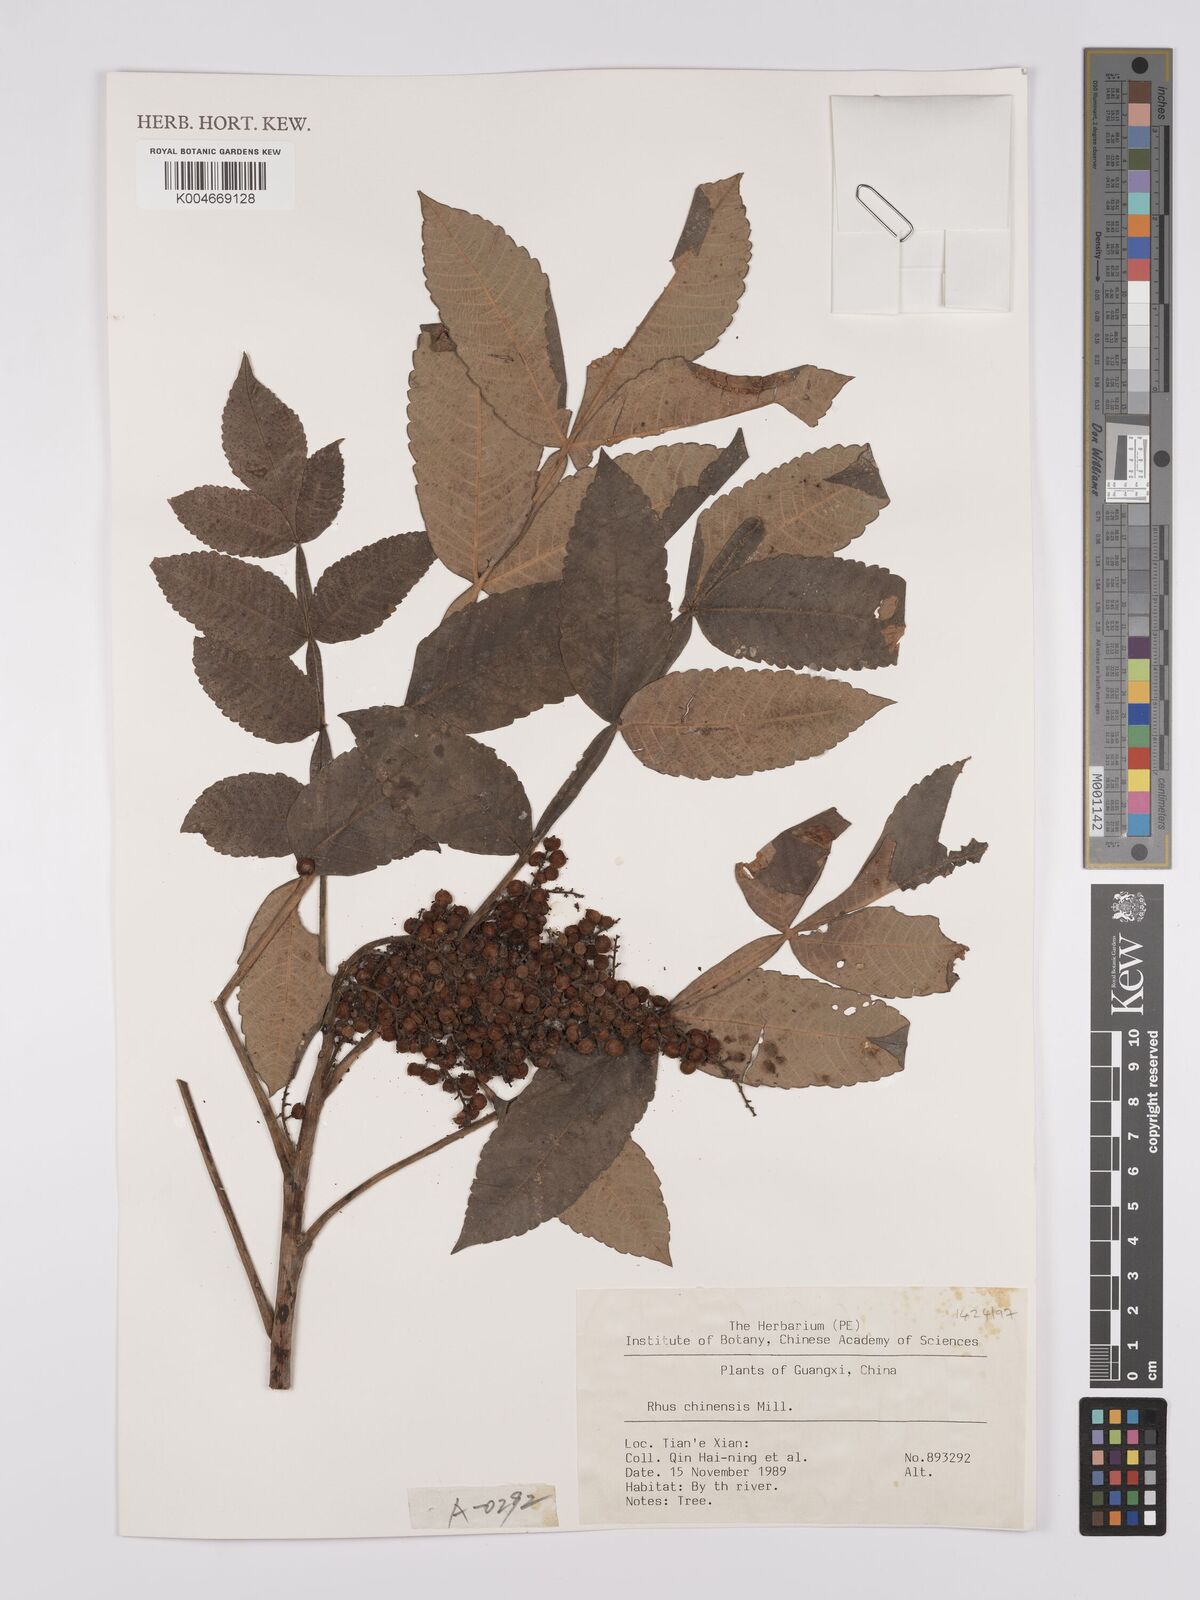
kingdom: Plantae
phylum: Tracheophyta
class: Magnoliopsida
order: Sapindales
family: Anacardiaceae
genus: Rhus
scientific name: Rhus chinensis
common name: Chinese gall
